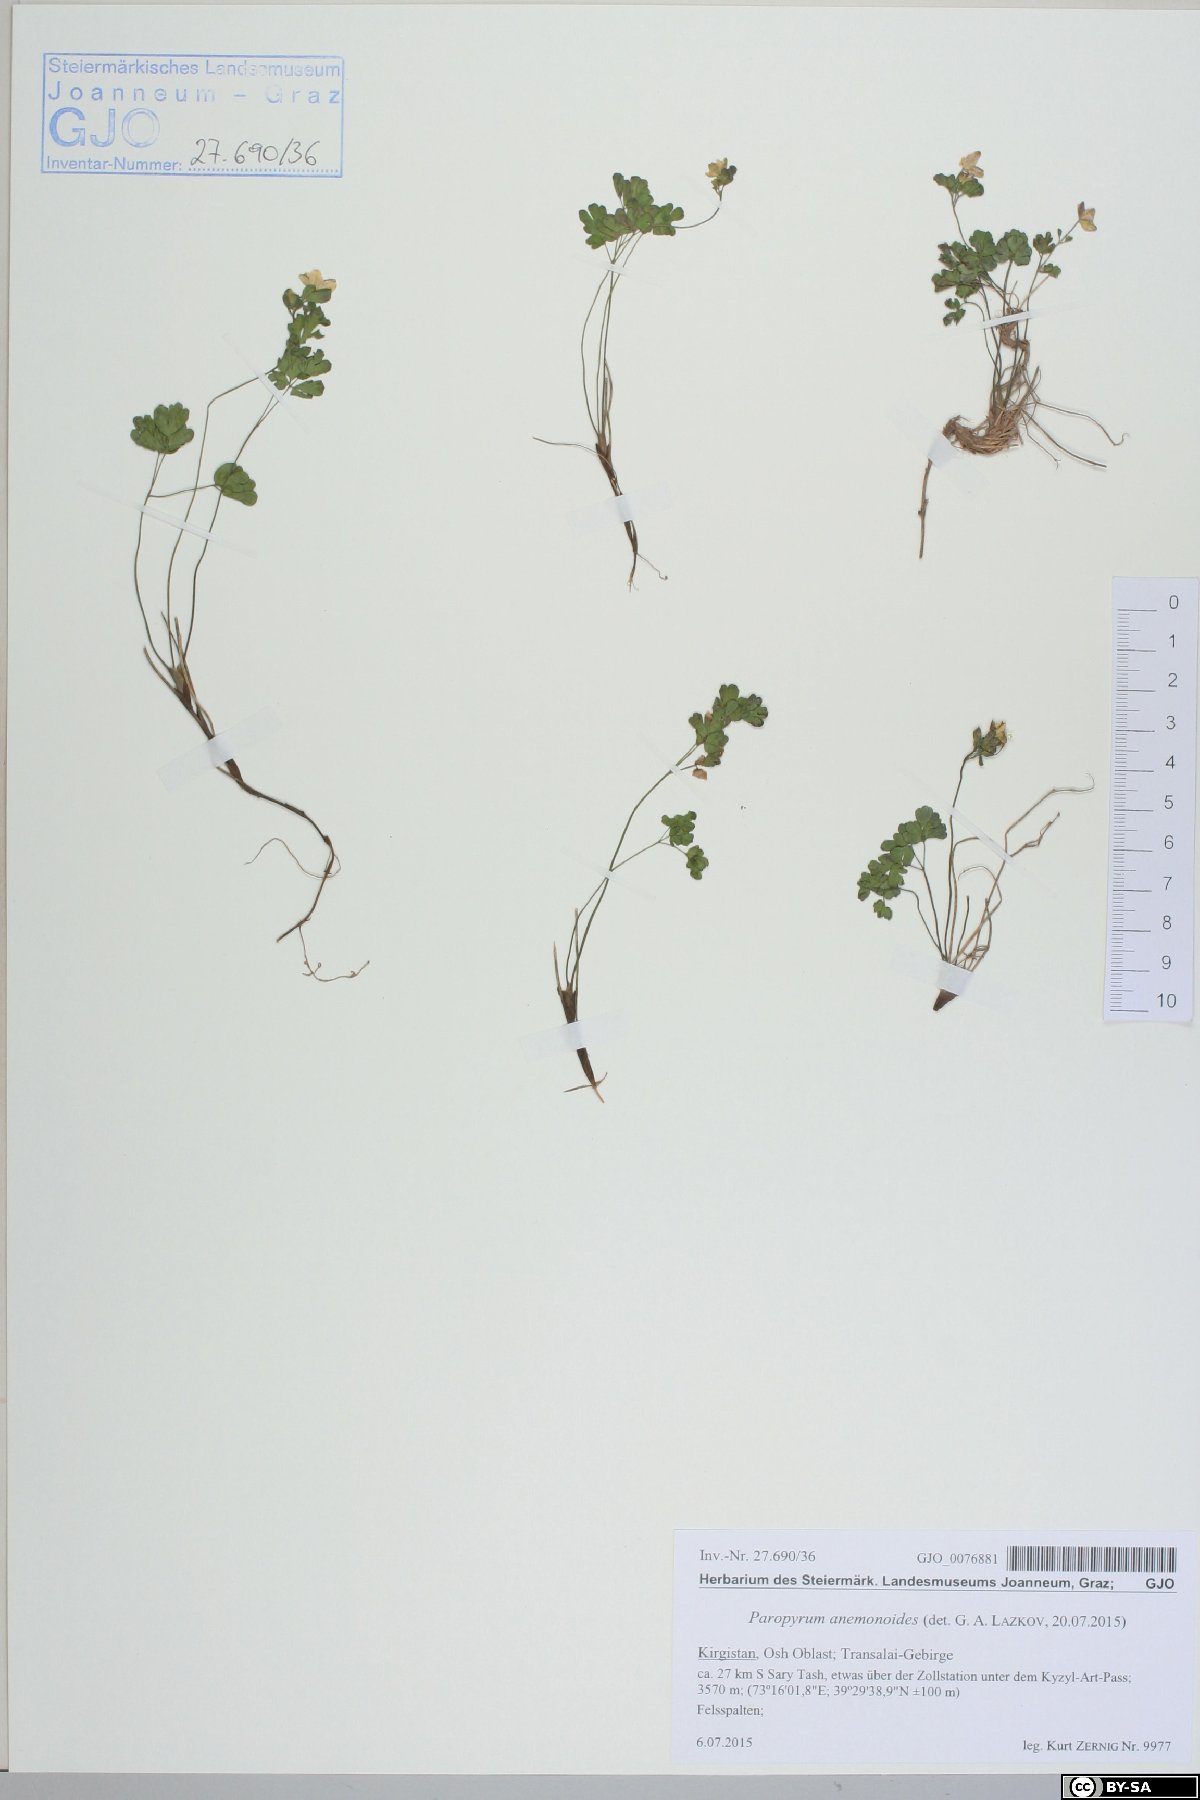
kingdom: Plantae
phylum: Tracheophyta
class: Magnoliopsida
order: Ranunculales
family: Ranunculaceae
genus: Isopyrum
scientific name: Isopyrum anemonoides
